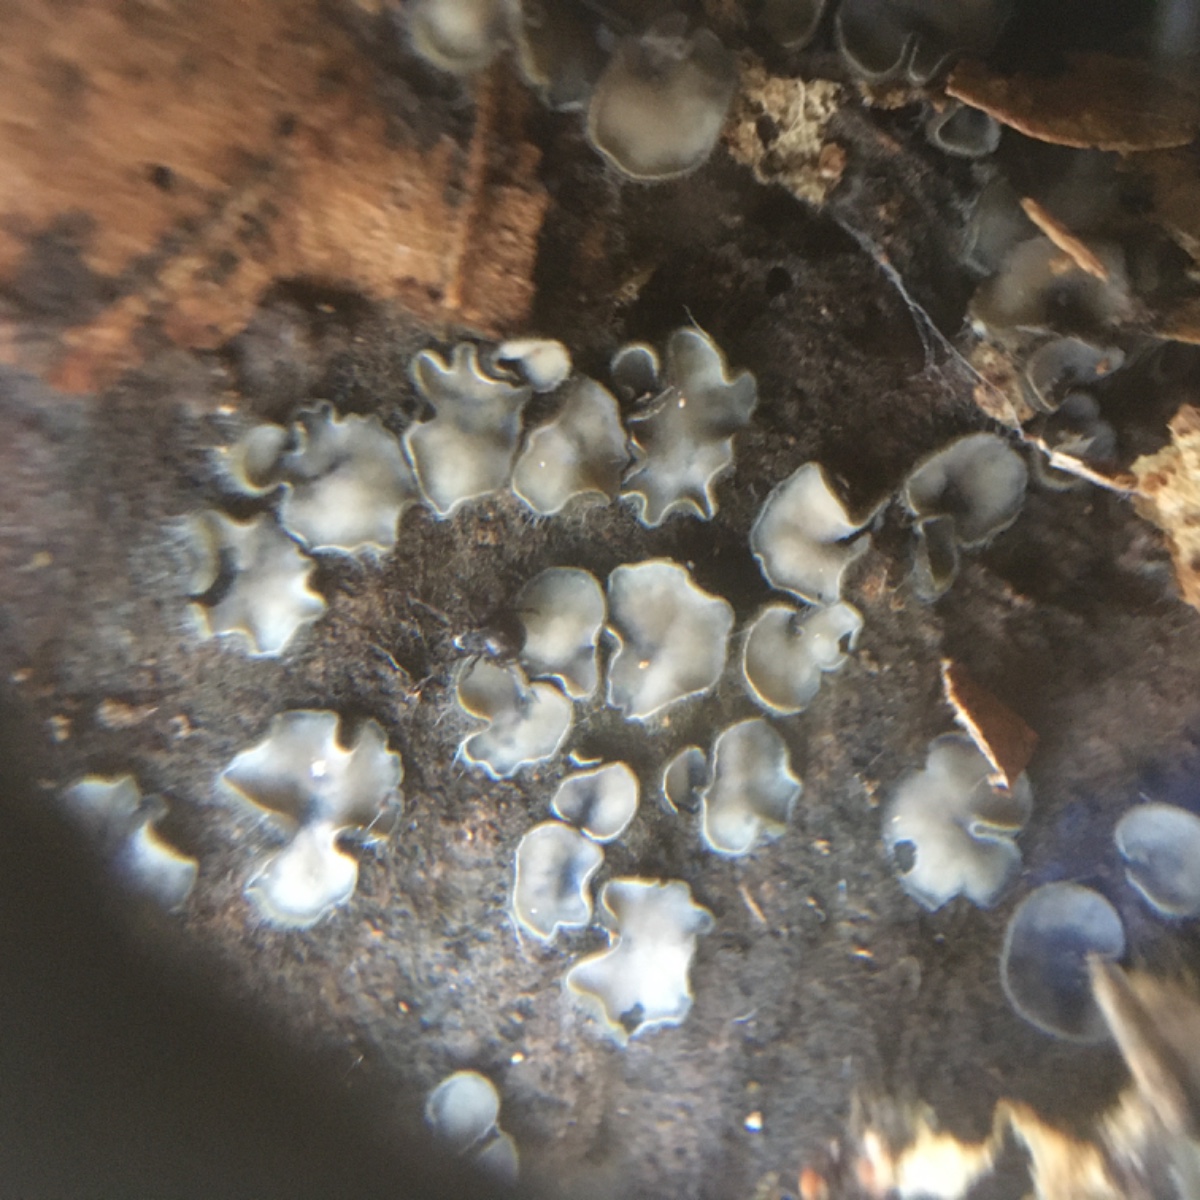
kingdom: Fungi
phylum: Ascomycota
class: Leotiomycetes
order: Helotiales
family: Mollisiaceae
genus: Mollisia
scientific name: Mollisia
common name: gråskive
